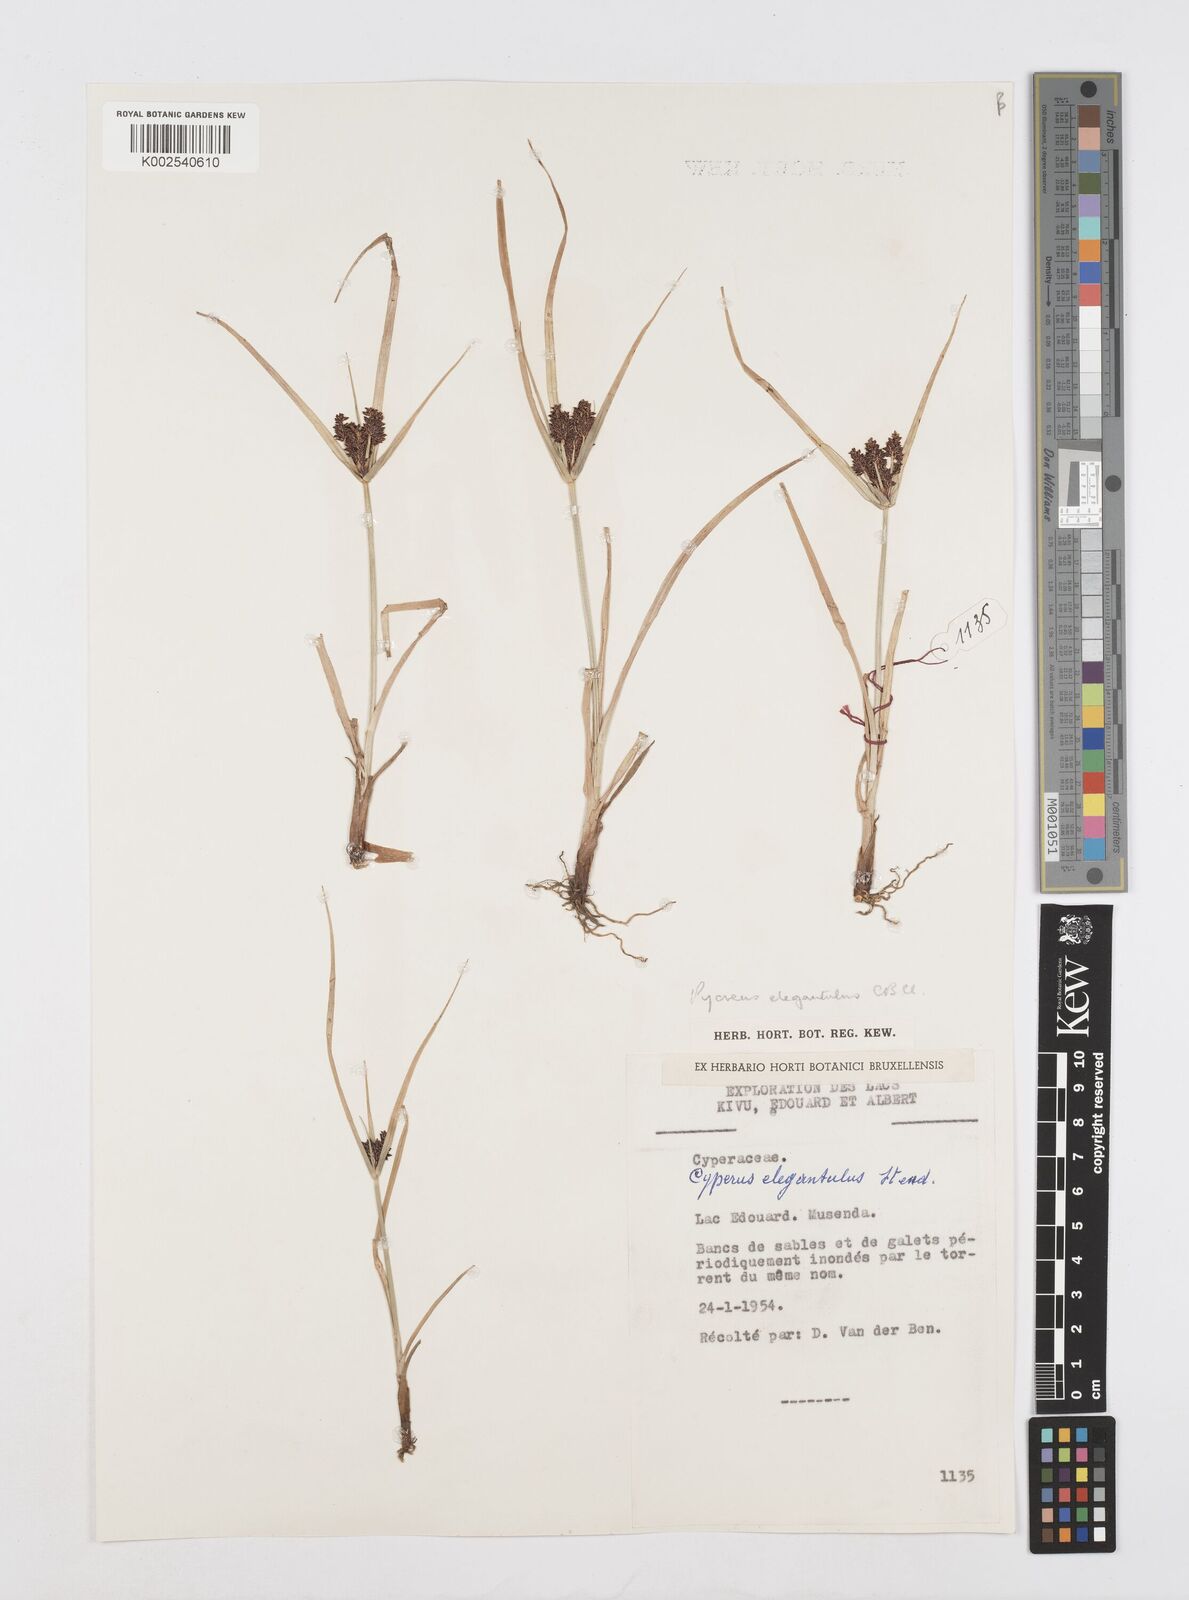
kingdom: Plantae
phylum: Tracheophyta
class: Liliopsida
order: Poales
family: Cyperaceae
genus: Cyperus
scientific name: Cyperus elegantulus
